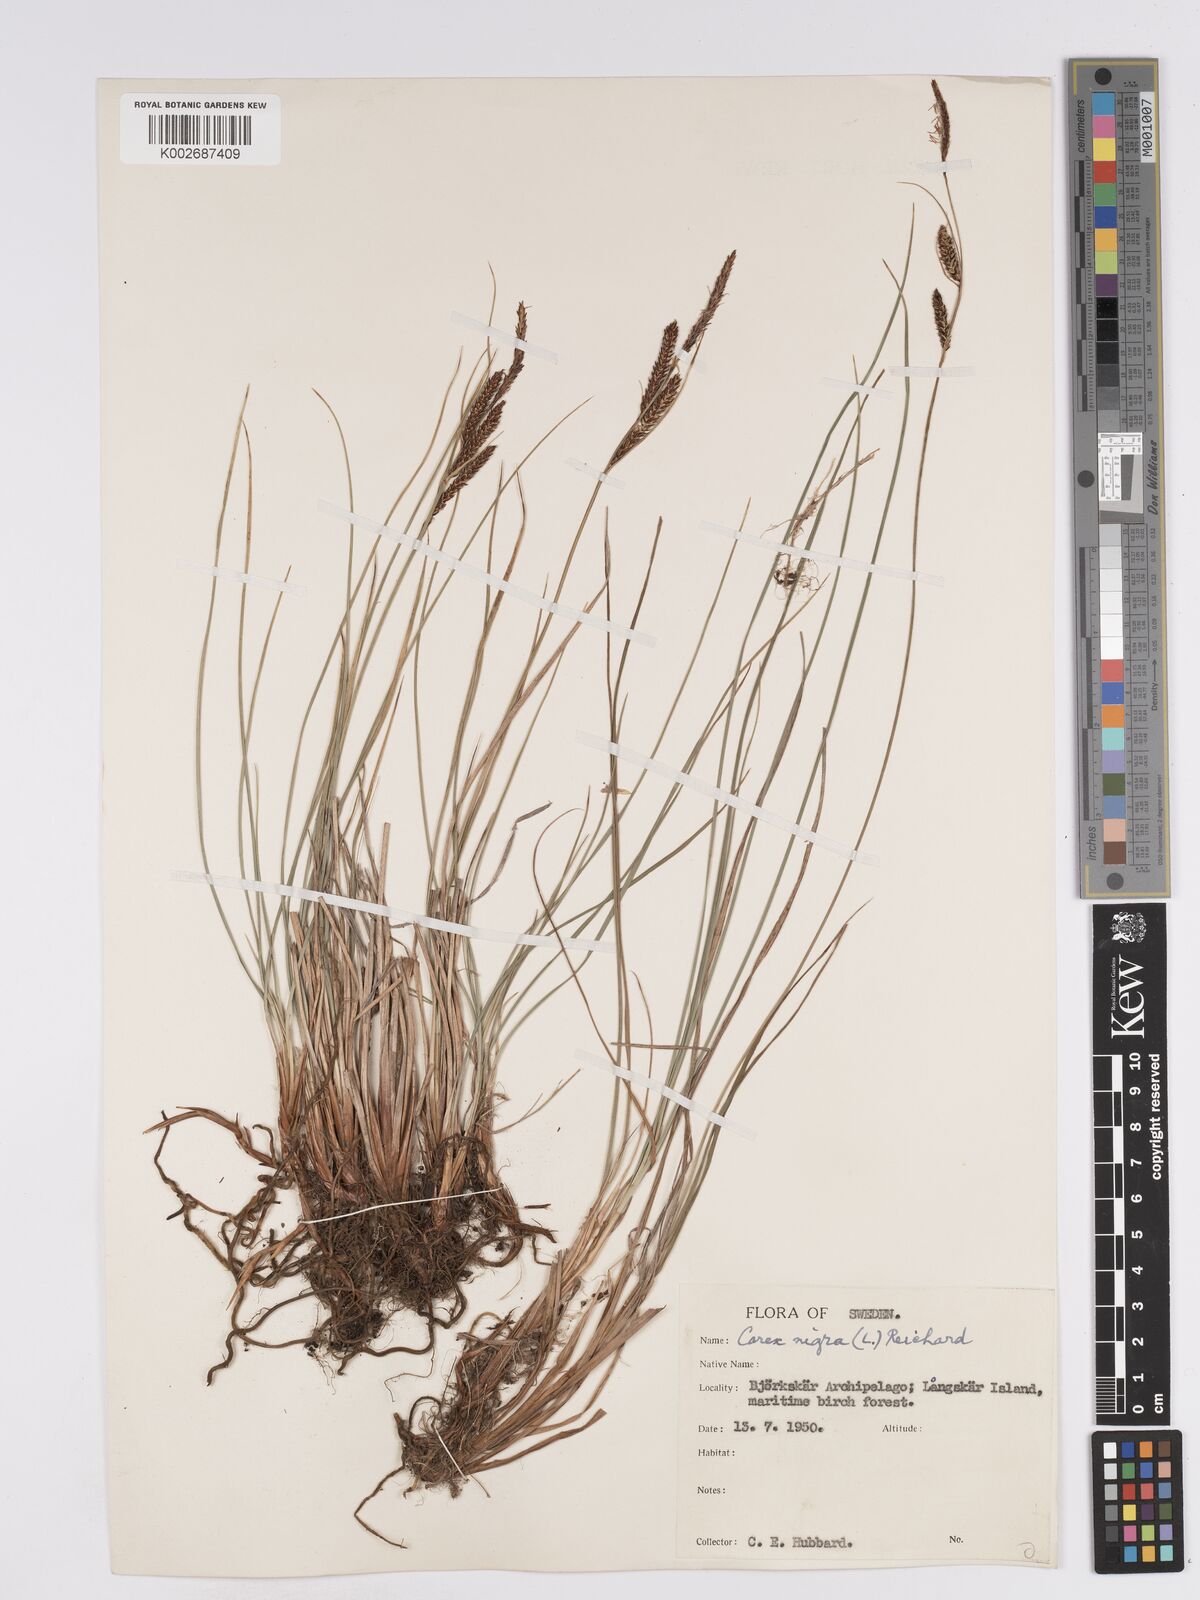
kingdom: Plantae
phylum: Tracheophyta
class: Liliopsida
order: Poales
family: Cyperaceae
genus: Carex
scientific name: Carex nigra
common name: Common sedge
